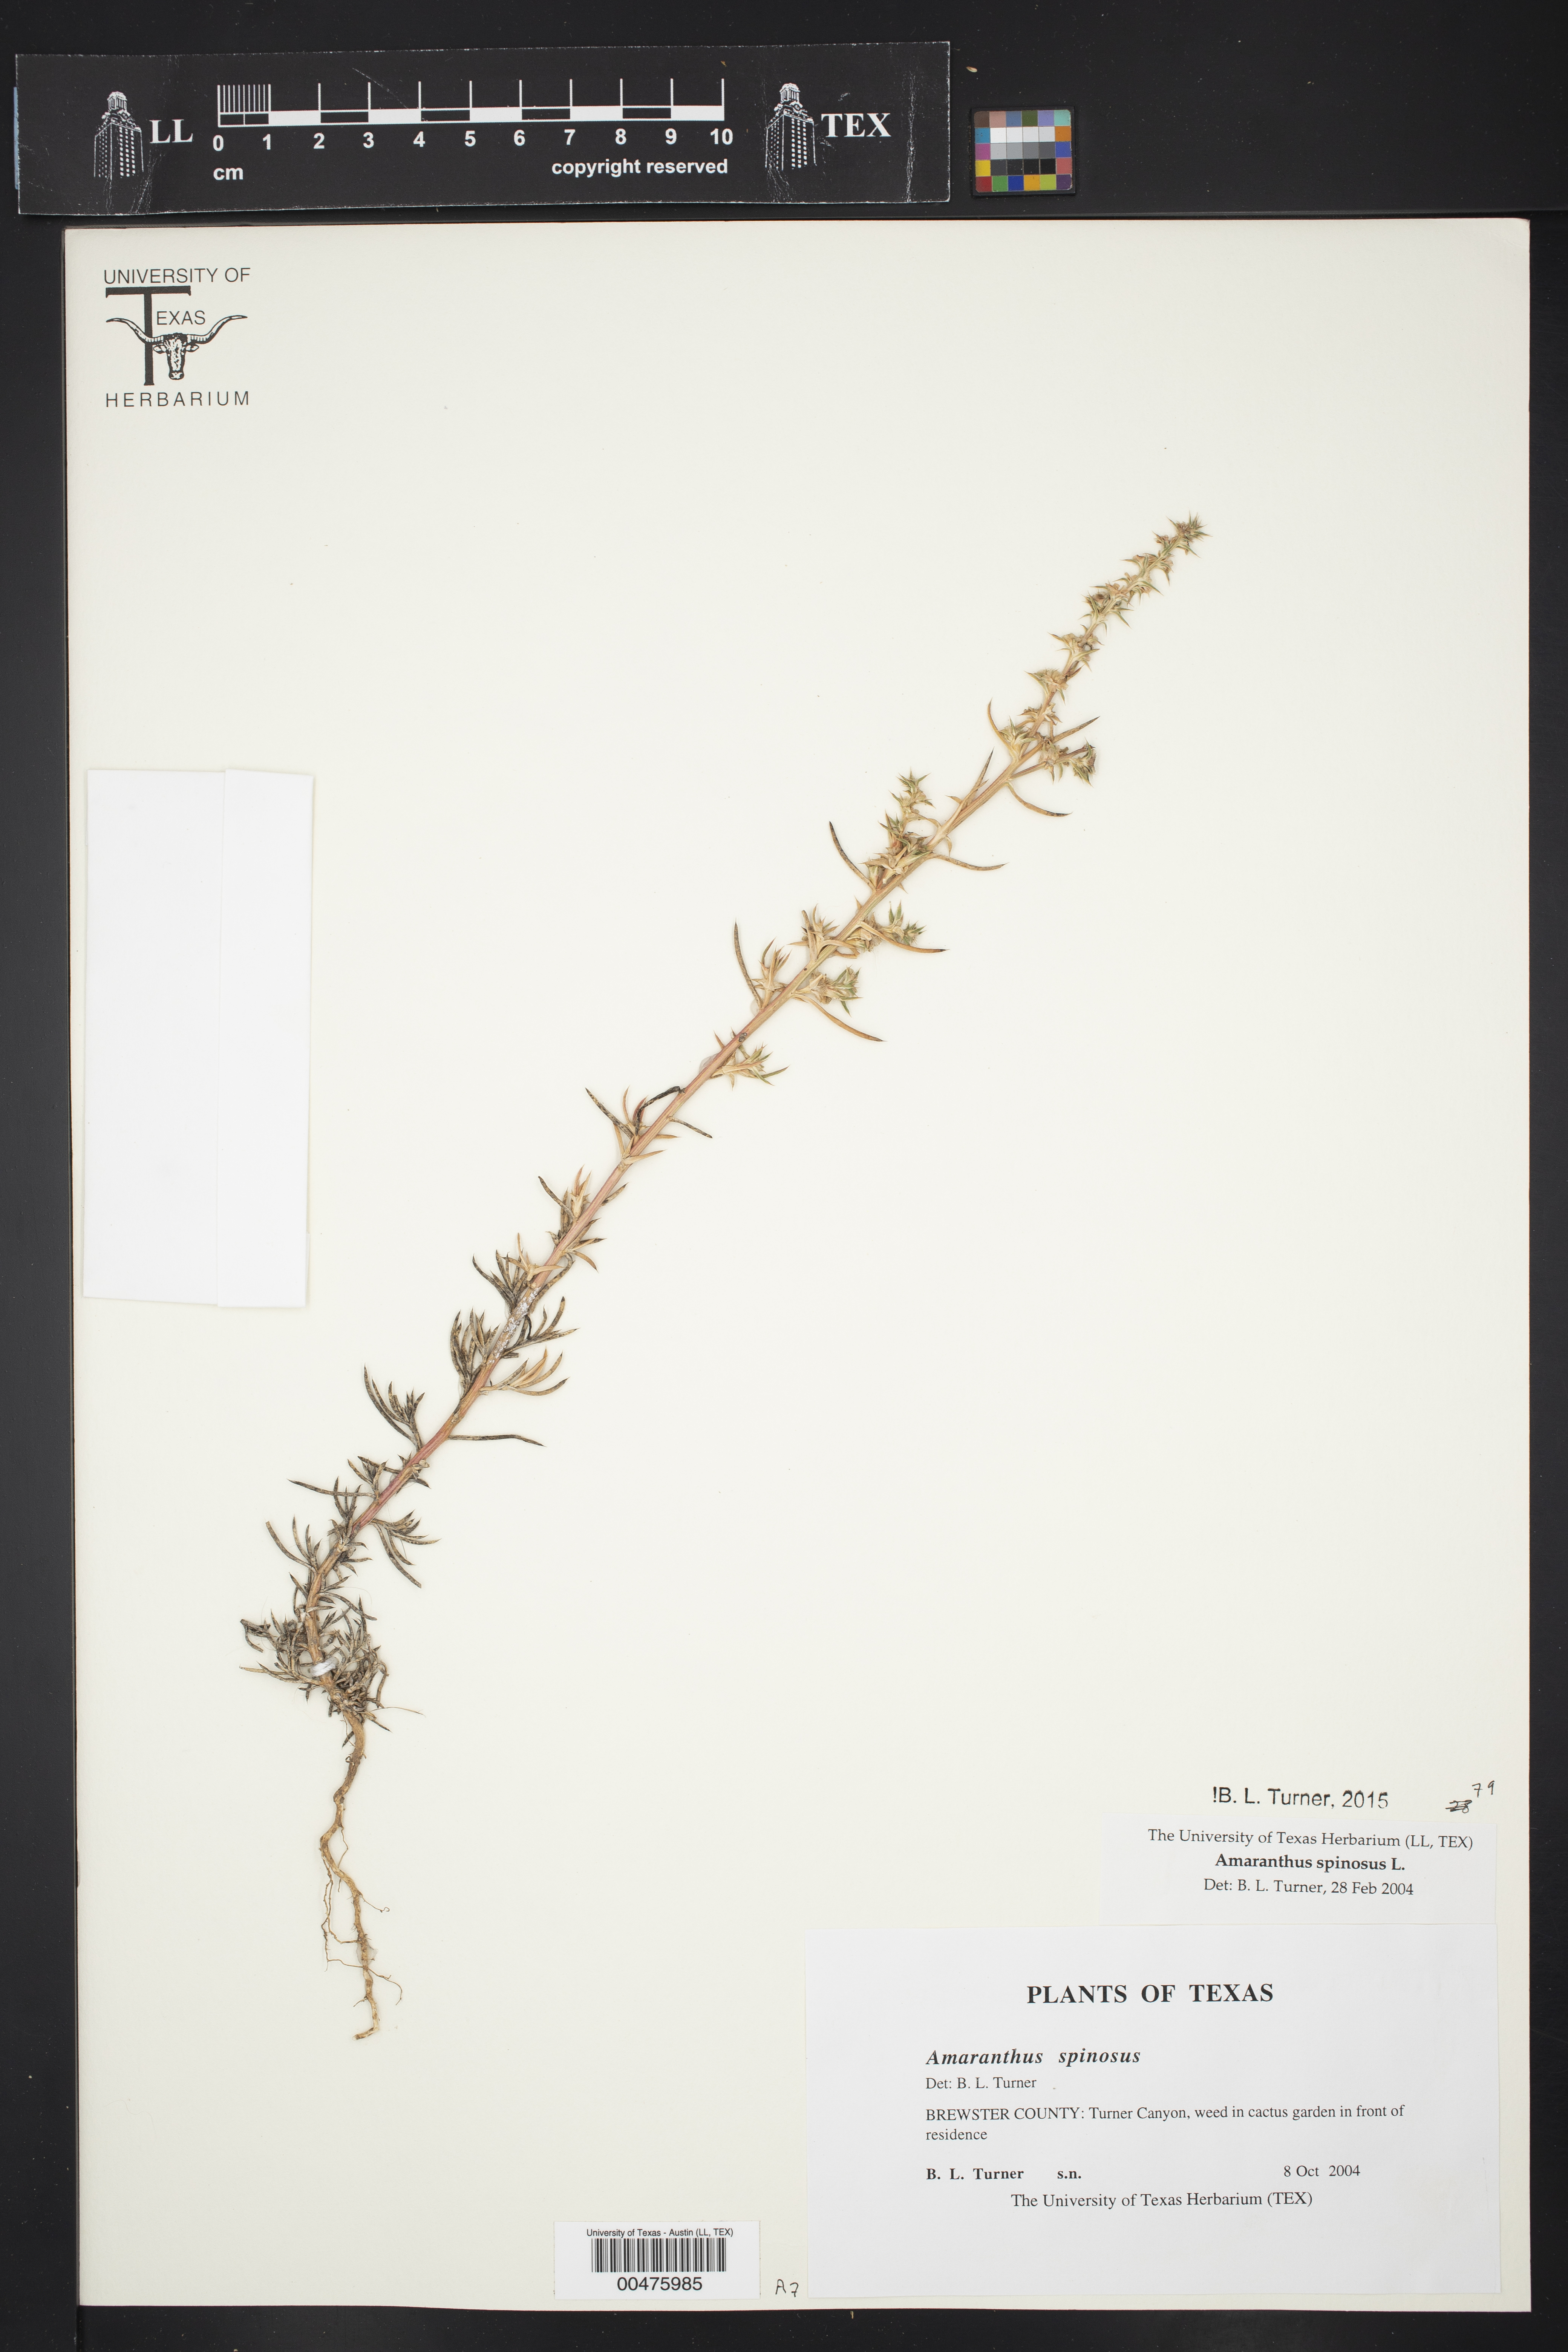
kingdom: Plantae
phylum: Tracheophyta
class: Magnoliopsida
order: Caryophyllales
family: Amaranthaceae
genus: Amaranthus
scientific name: Amaranthus spinosus
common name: Spiny amaranth
